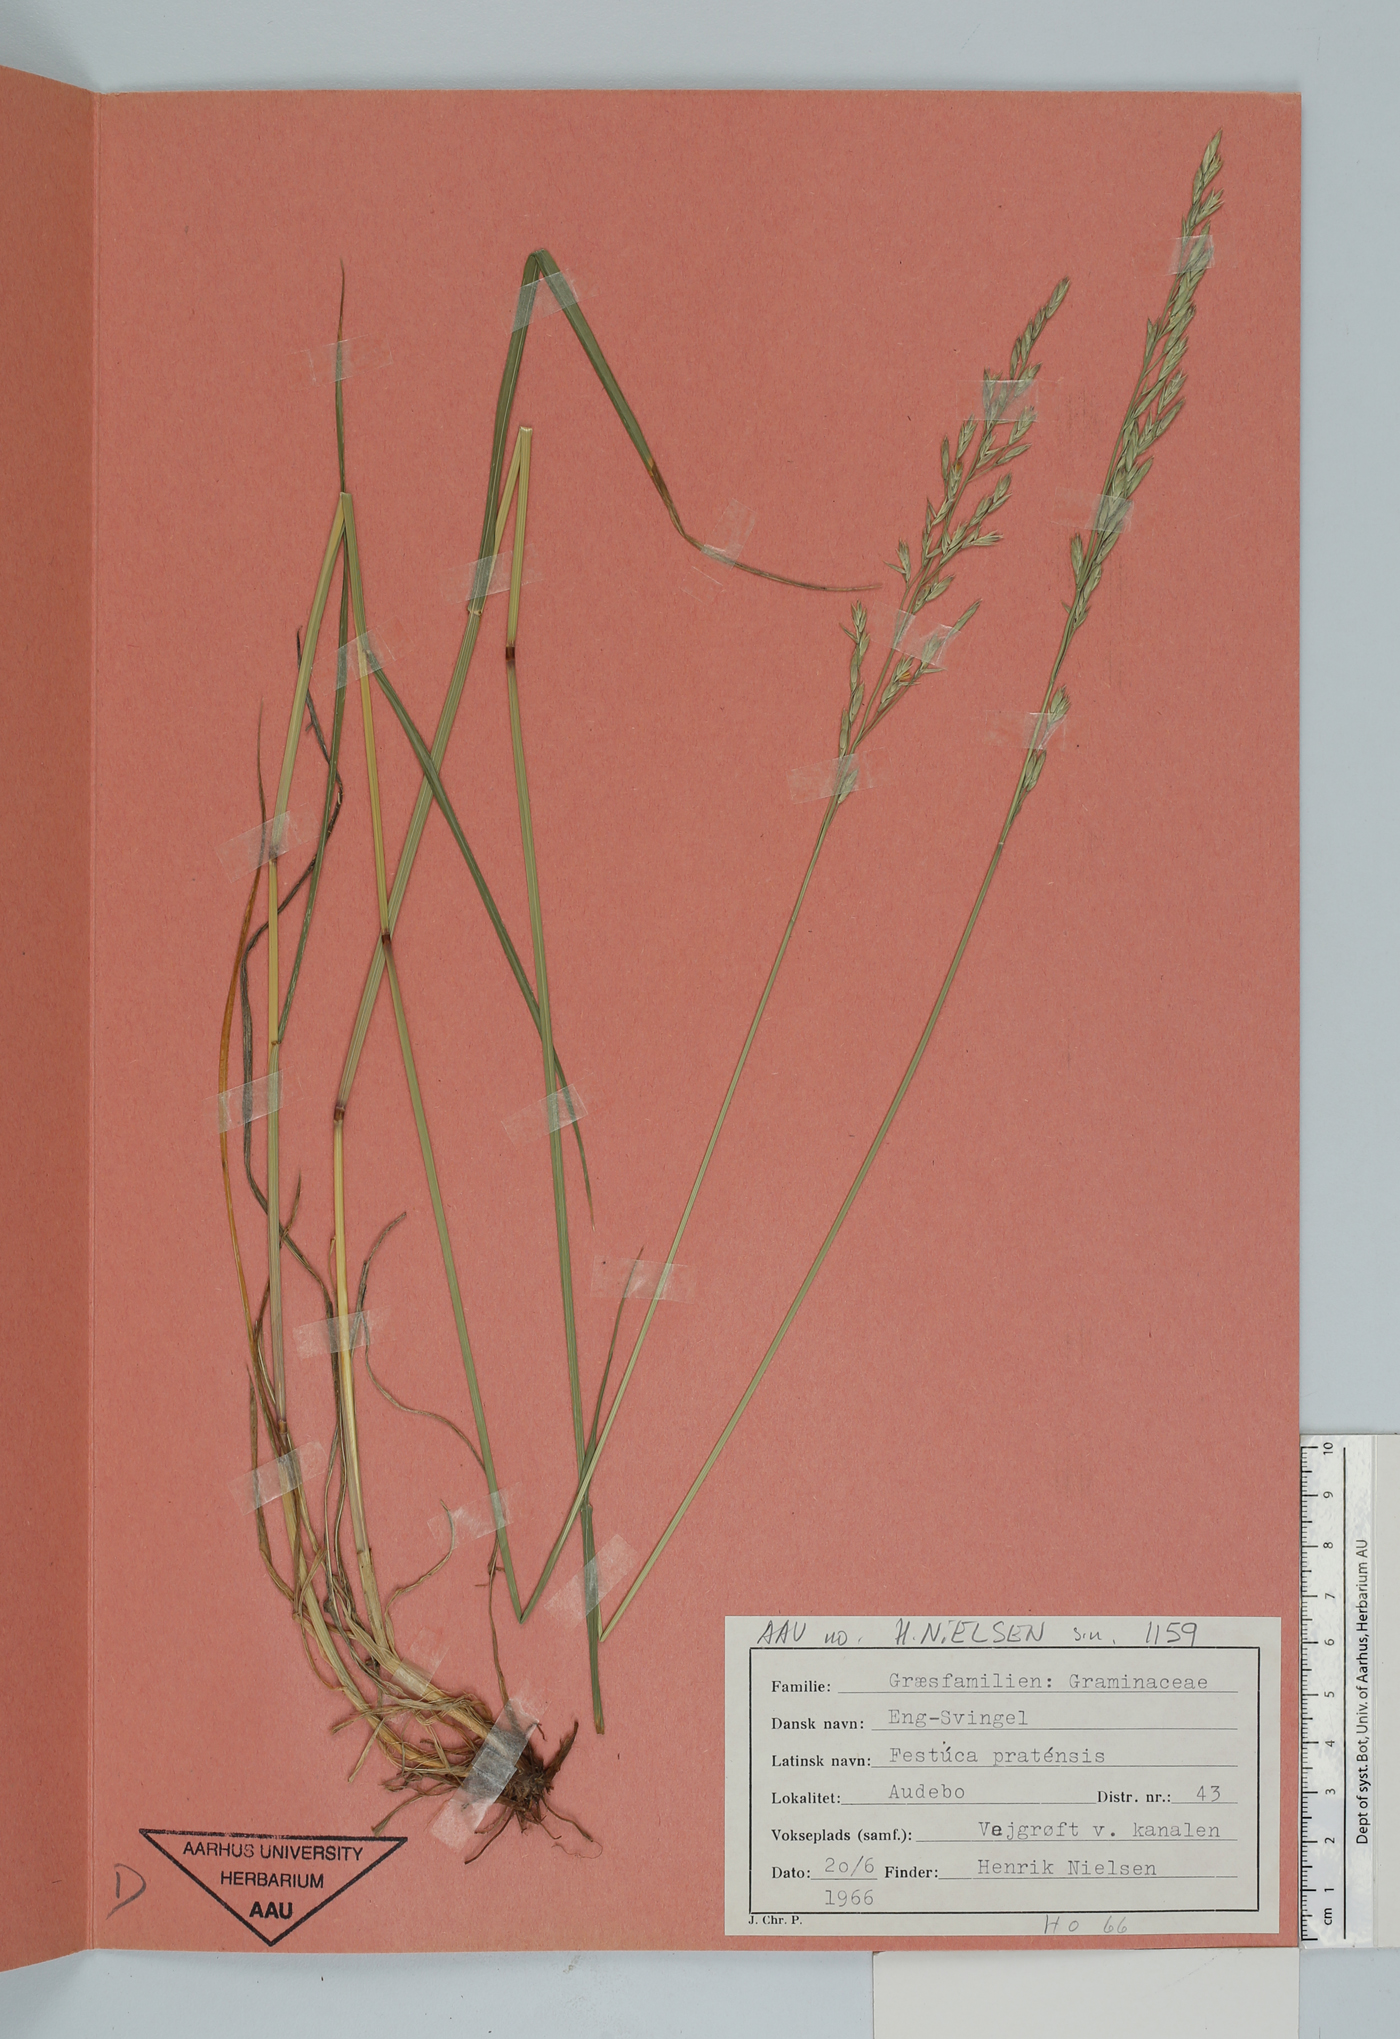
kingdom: Plantae
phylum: Tracheophyta
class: Liliopsida
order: Poales
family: Poaceae
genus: Lolium
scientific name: Lolium pratense
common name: Dover grass
